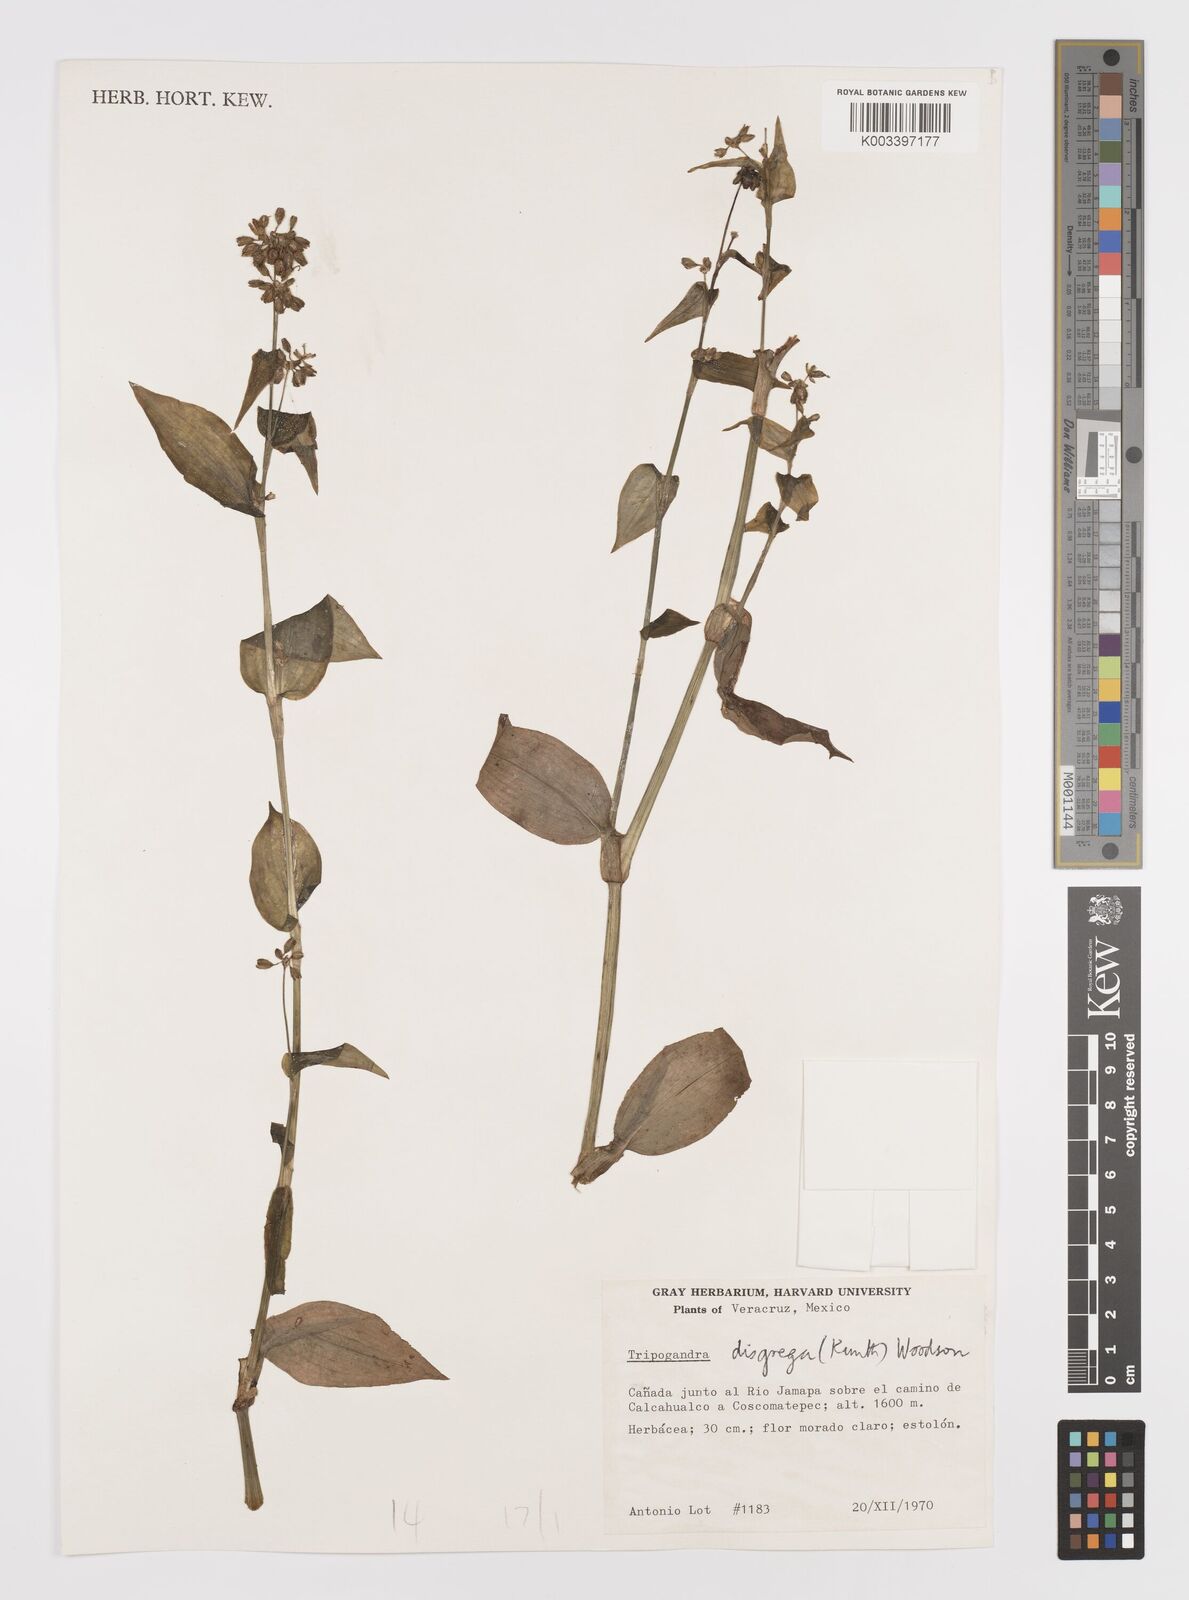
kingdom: Plantae
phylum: Tracheophyta
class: Liliopsida
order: Commelinales
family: Commelinaceae
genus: Callisia
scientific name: Callisia disgrega
